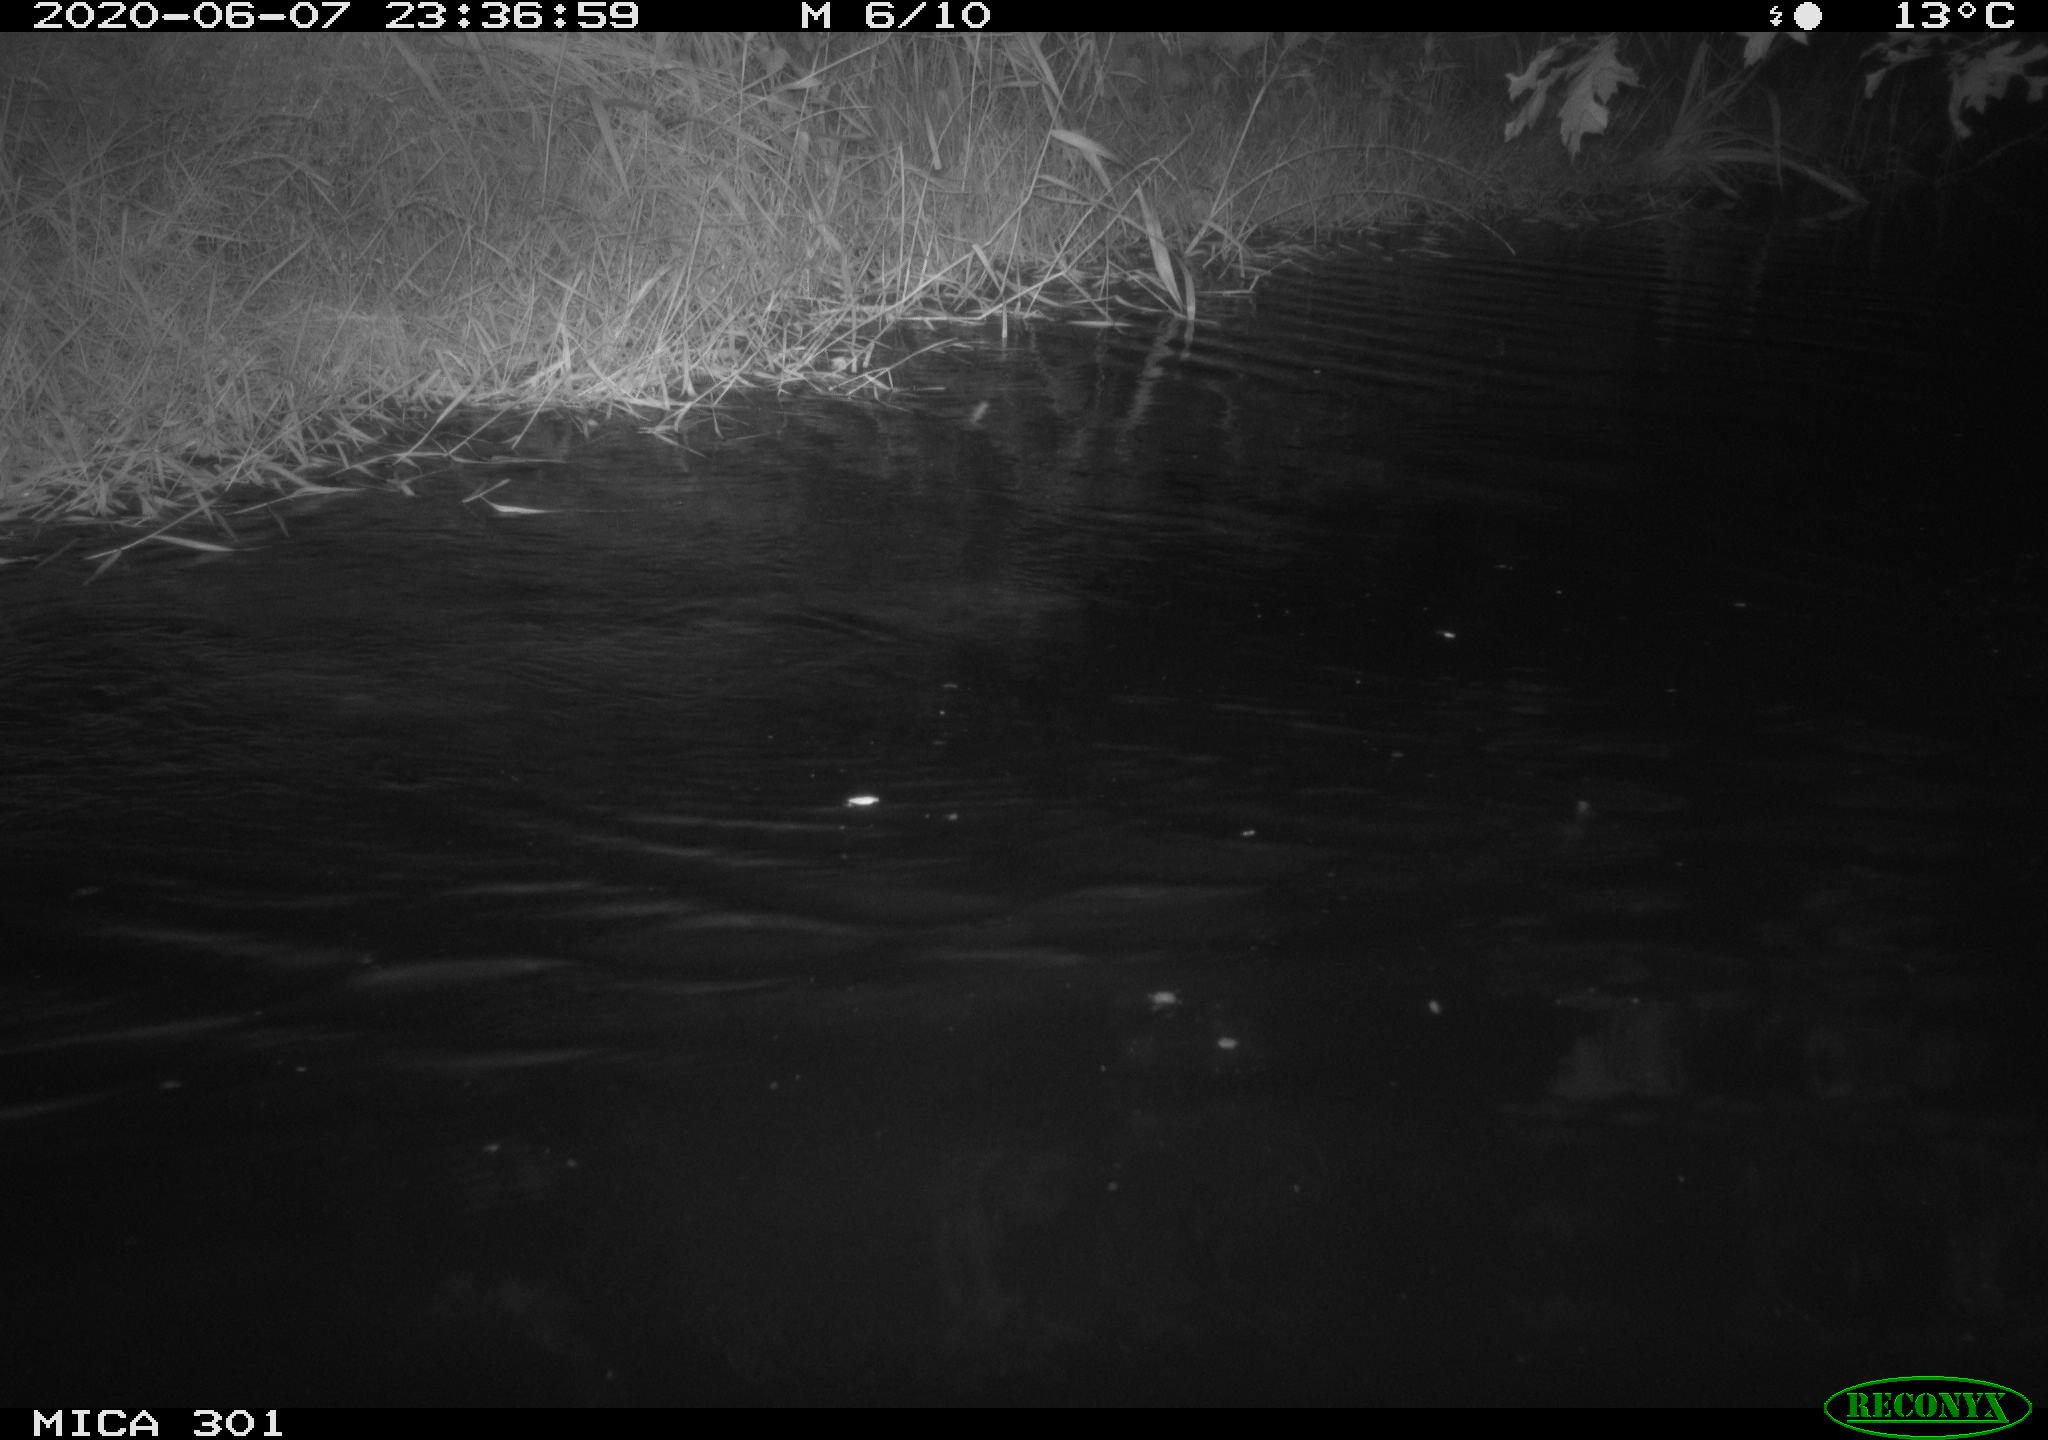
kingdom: Animalia
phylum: Chordata
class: Mammalia
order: Rodentia
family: Castoridae
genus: Castor
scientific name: Castor fiber
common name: Eurasian beaver
